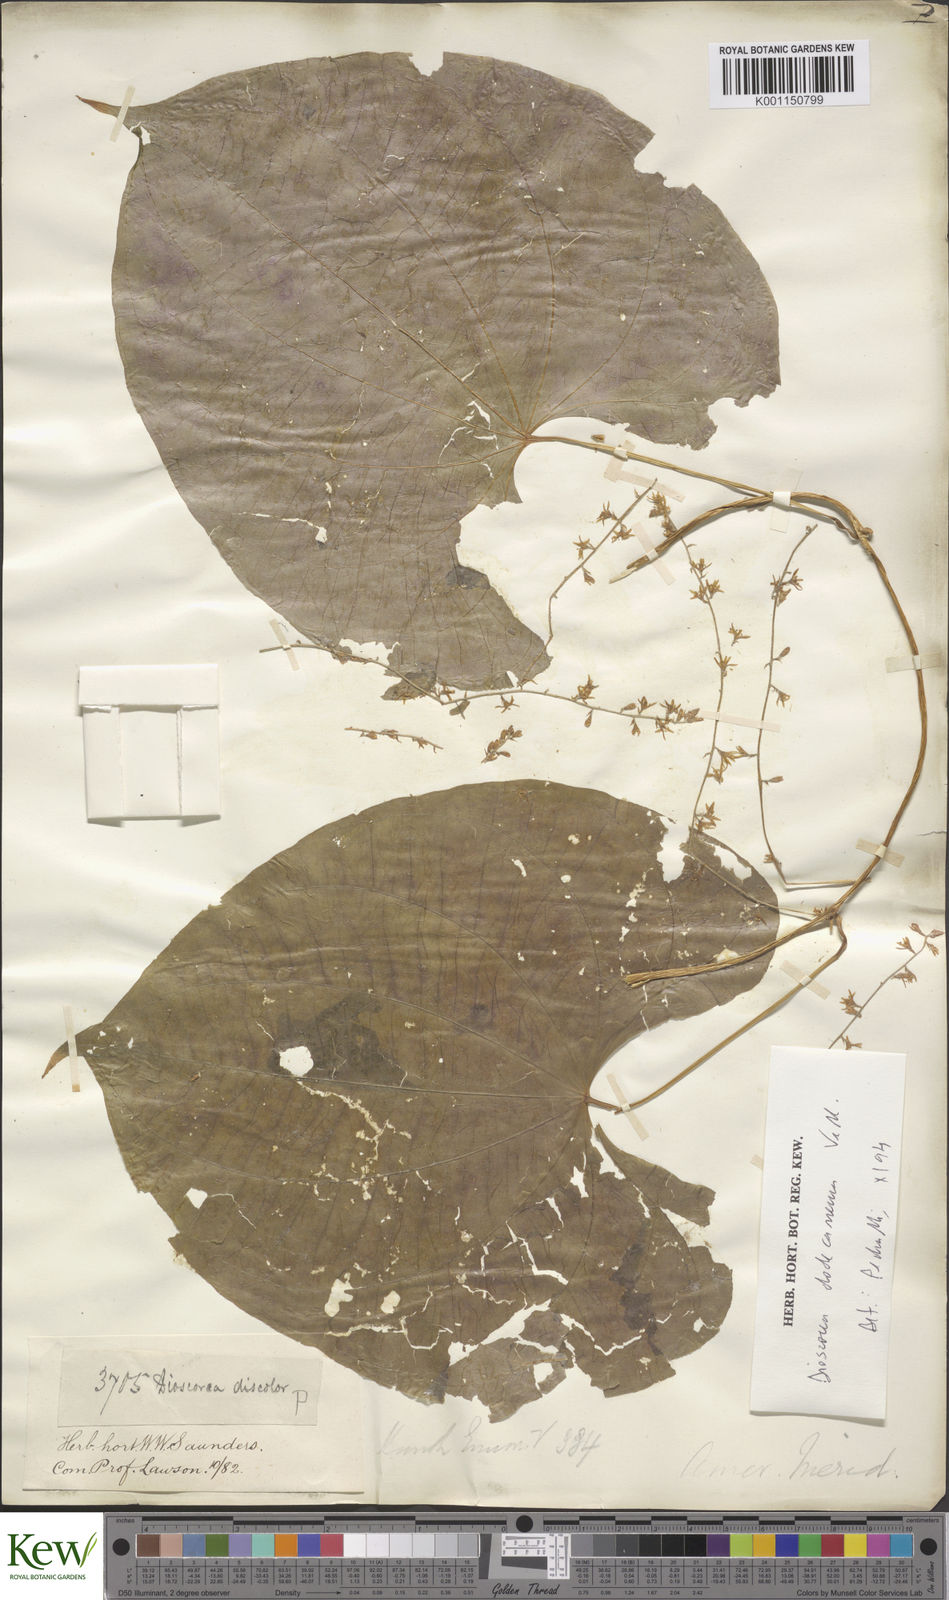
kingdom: Plantae
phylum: Tracheophyta
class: Liliopsida
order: Dioscoreales
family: Dioscoreaceae
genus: Dioscorea
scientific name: Dioscorea dodecaneura
